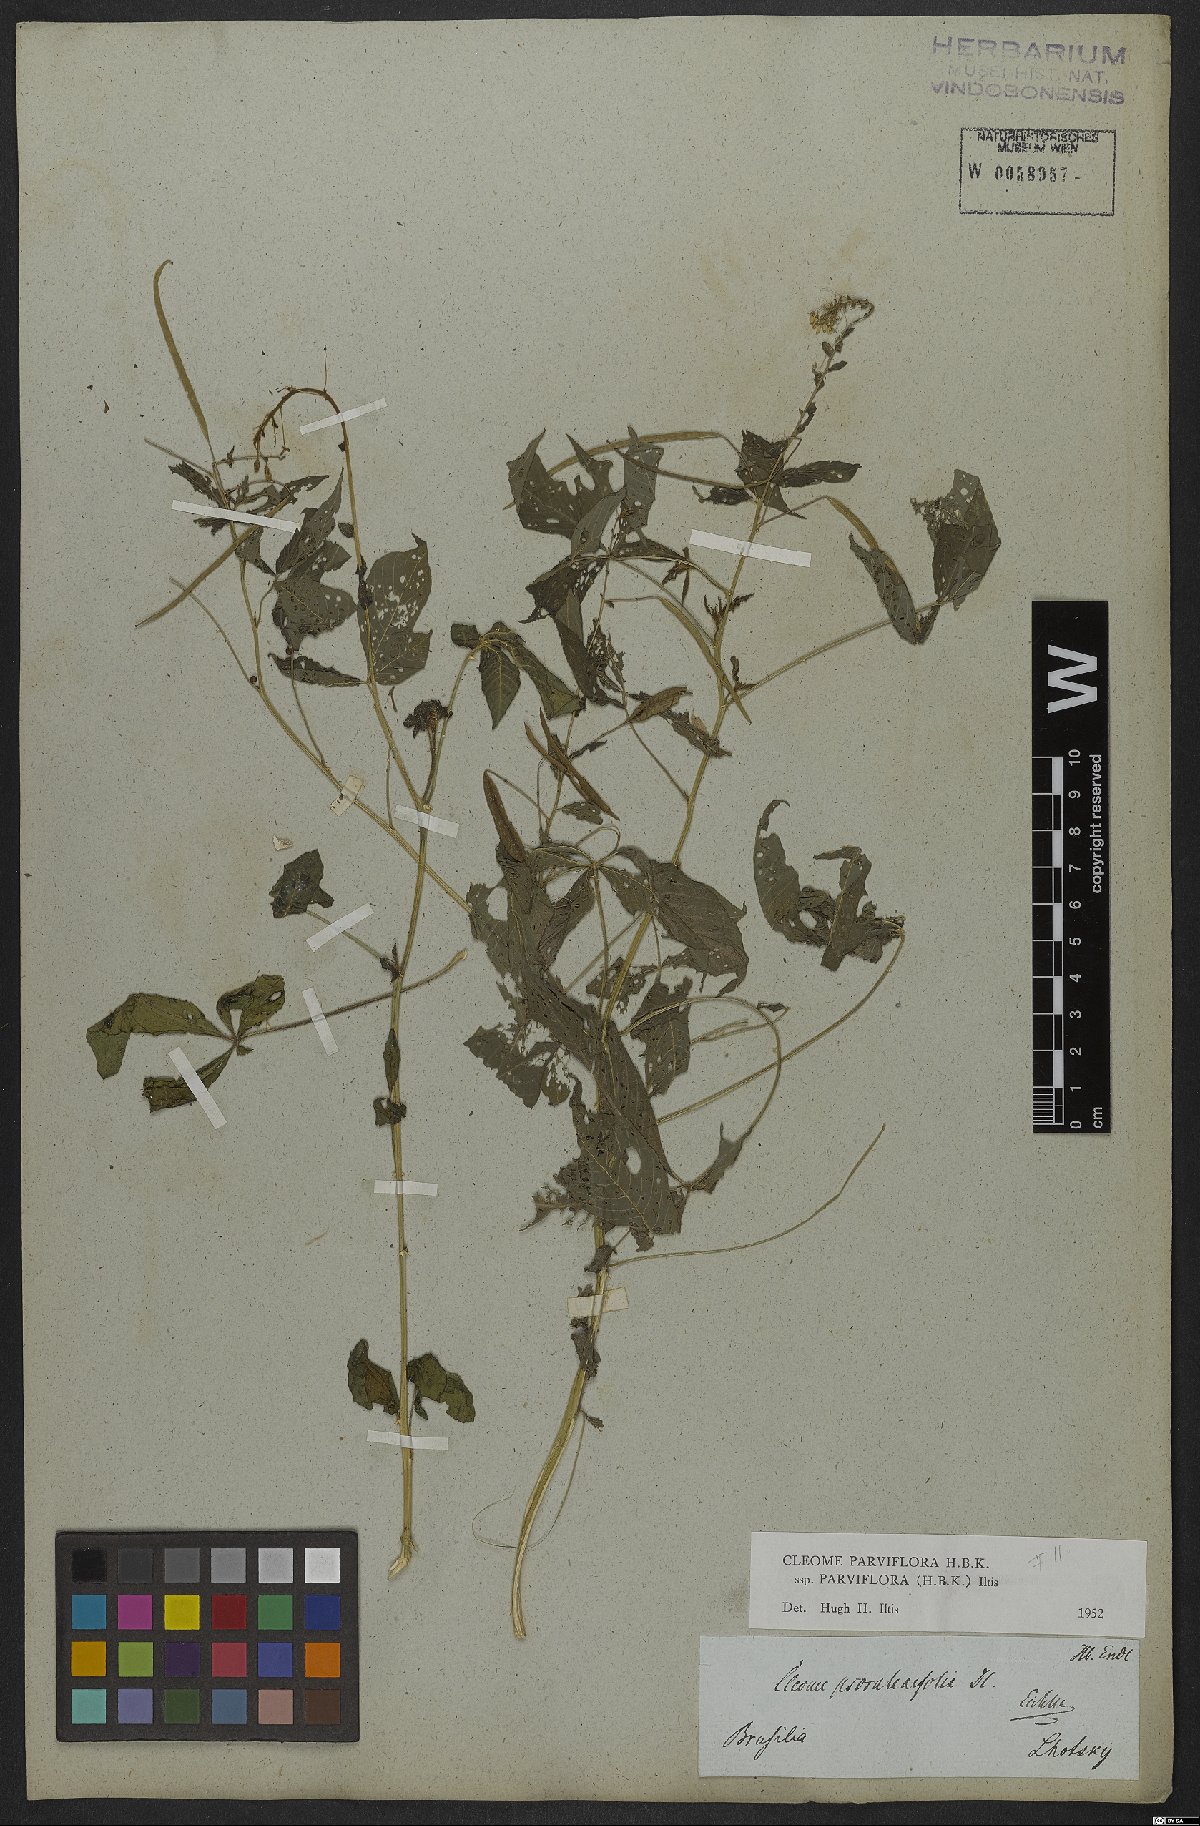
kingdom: Plantae
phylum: Tracheophyta
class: Magnoliopsida
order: Brassicales
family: Cleomaceae
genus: Tarenaya
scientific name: Tarenaya parviflora
